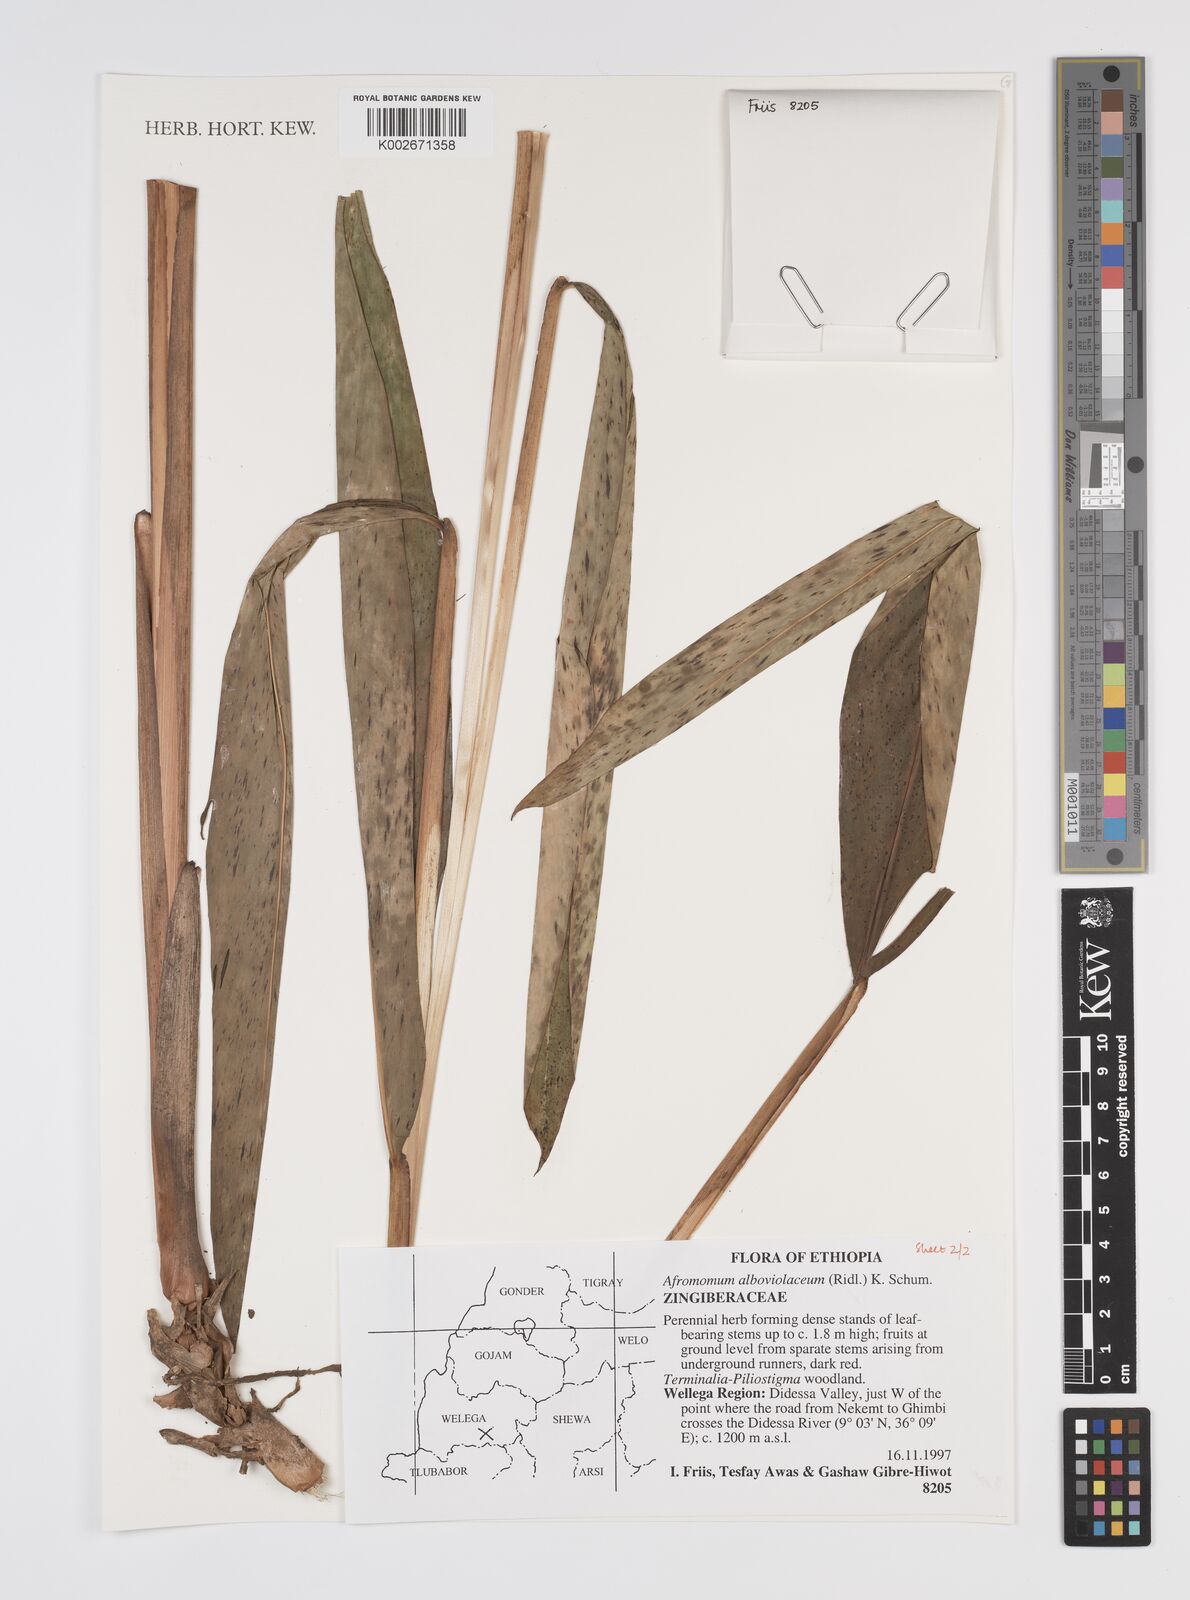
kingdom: Plantae
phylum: Tracheophyta
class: Liliopsida
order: Zingiberales
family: Zingiberaceae
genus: Aframomum
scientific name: Aframomum alboviolaceum
